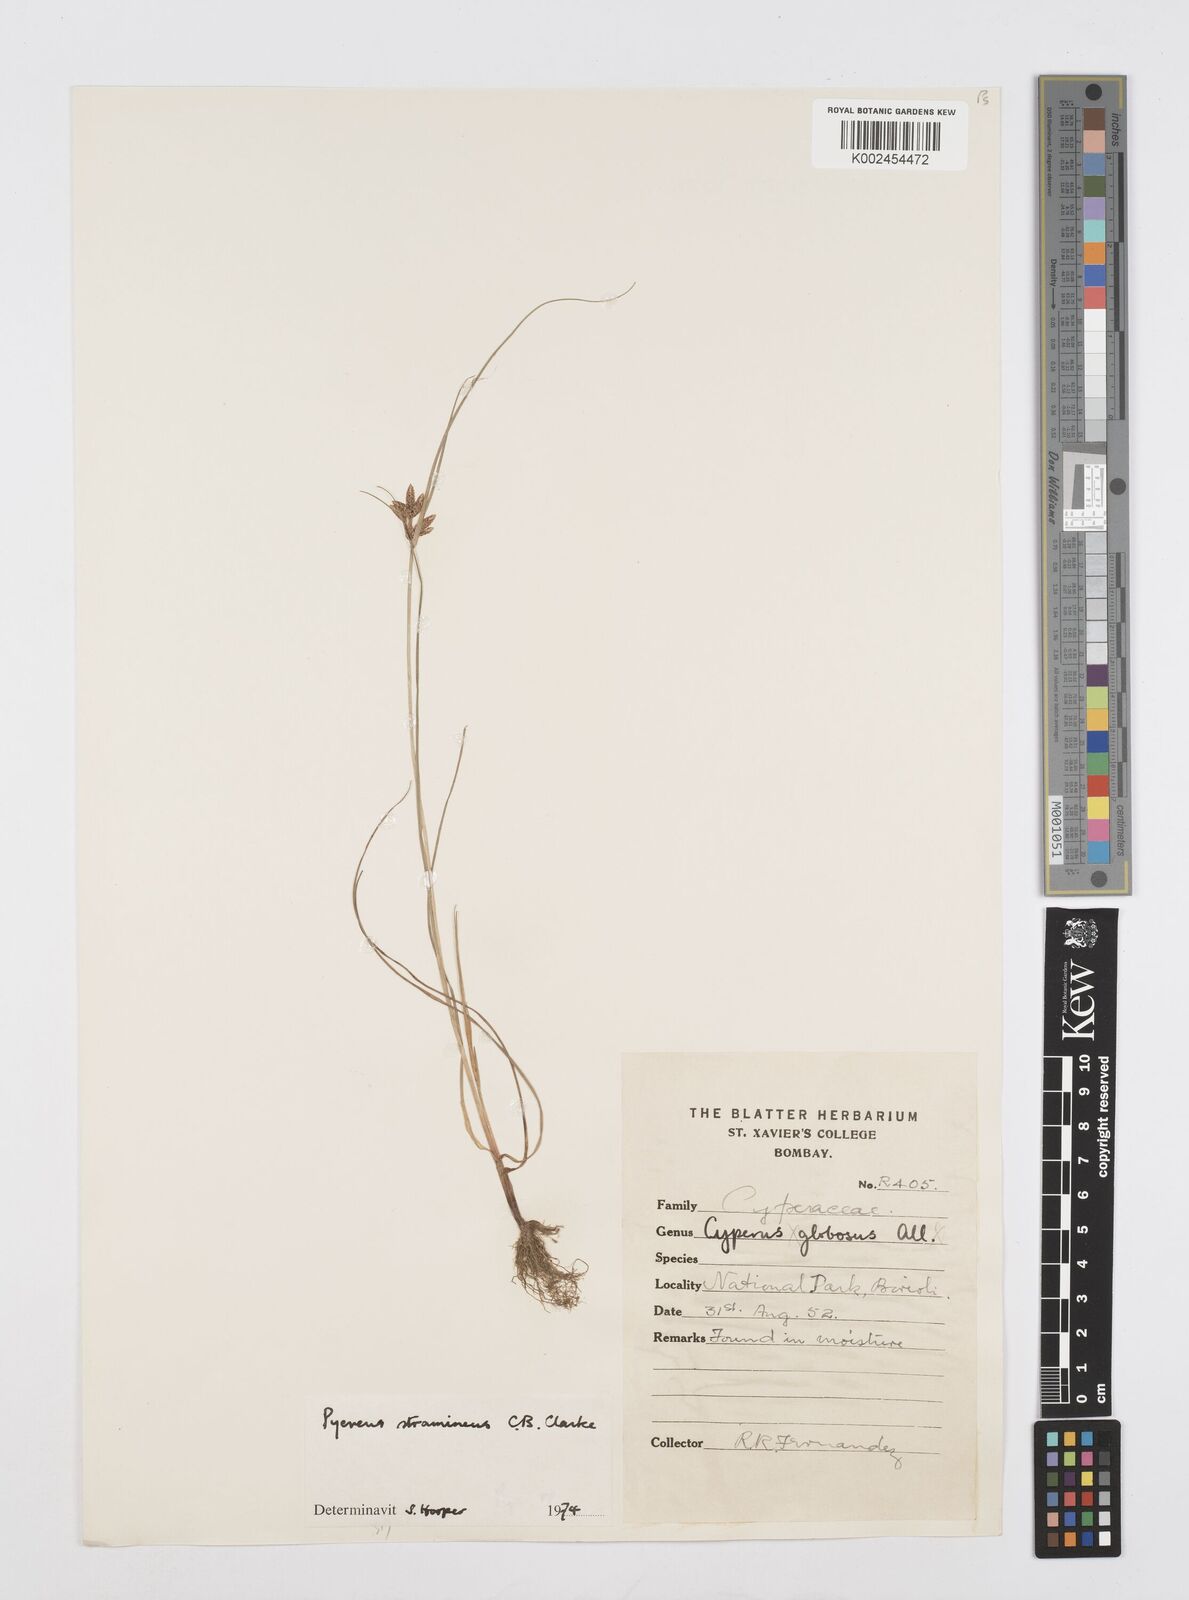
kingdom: Plantae
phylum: Tracheophyta
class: Liliopsida
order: Poales
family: Cyperaceae
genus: Cyperus
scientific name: Cyperus substramineus
